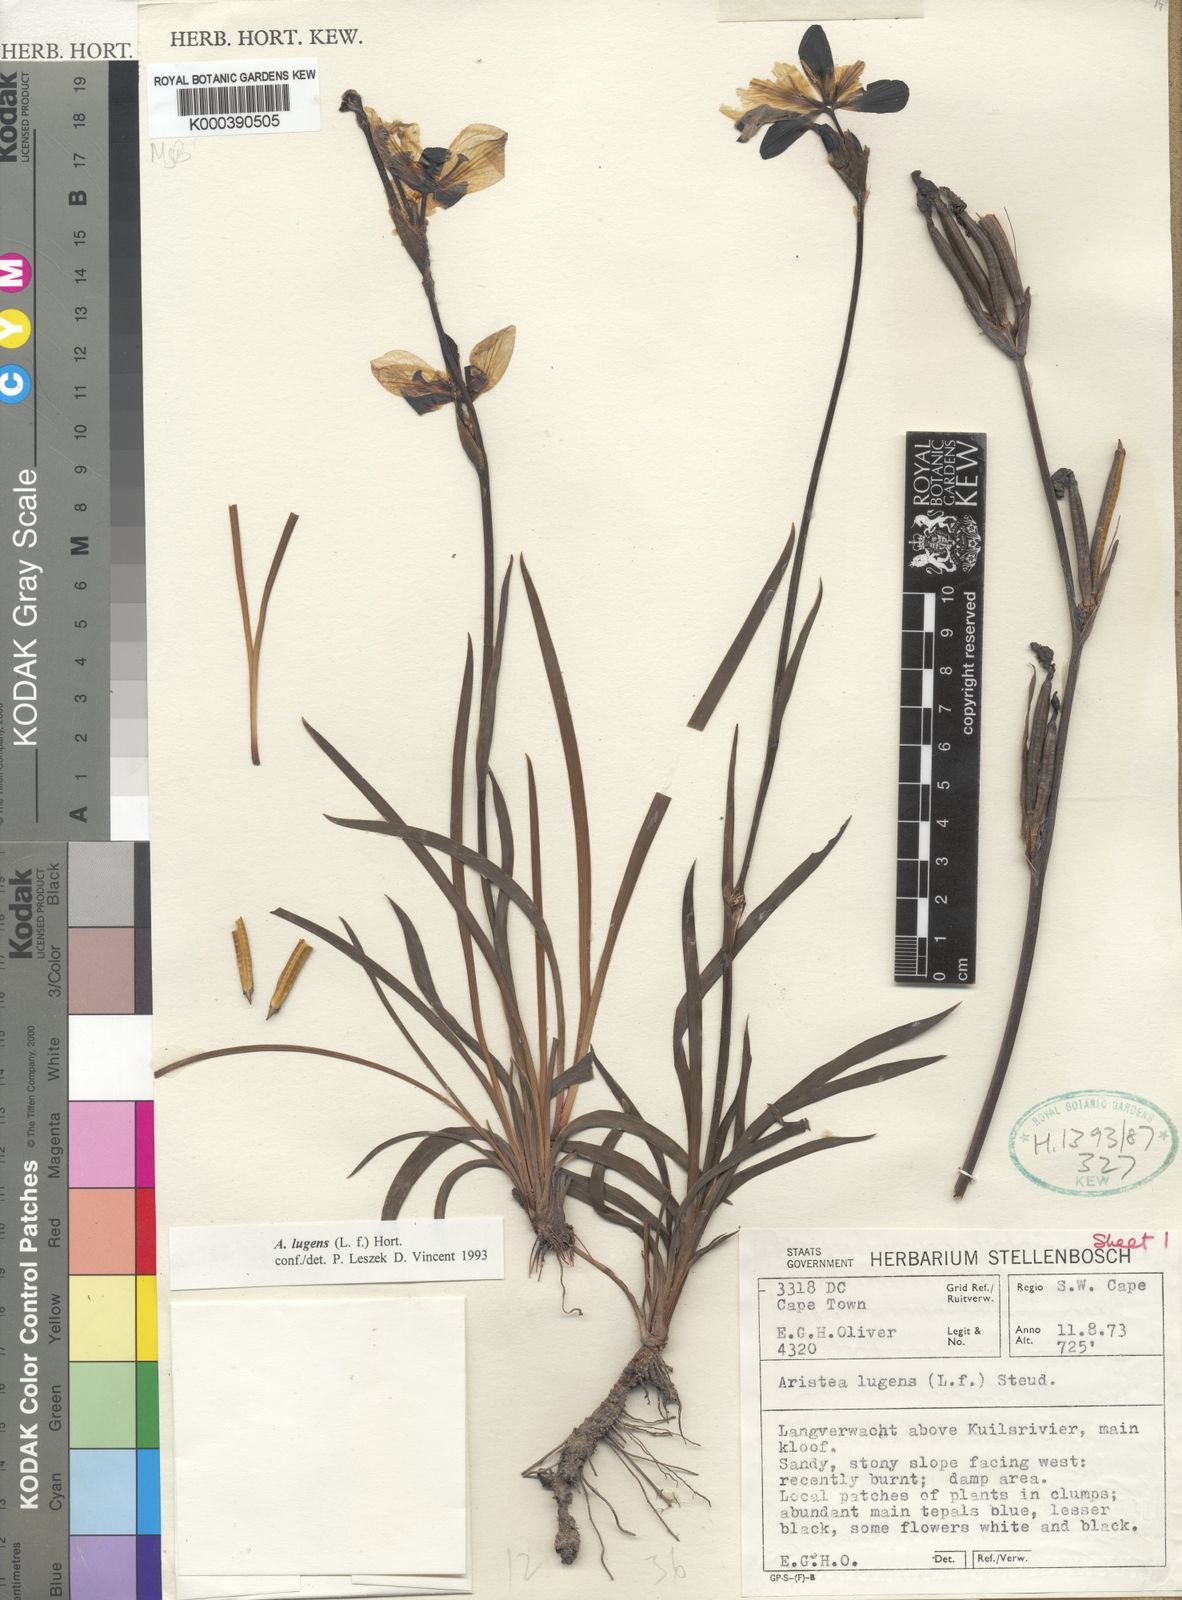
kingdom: Plantae
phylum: Tracheophyta
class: Liliopsida
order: Asparagales
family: Iridaceae
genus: Aristea
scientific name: Aristea
